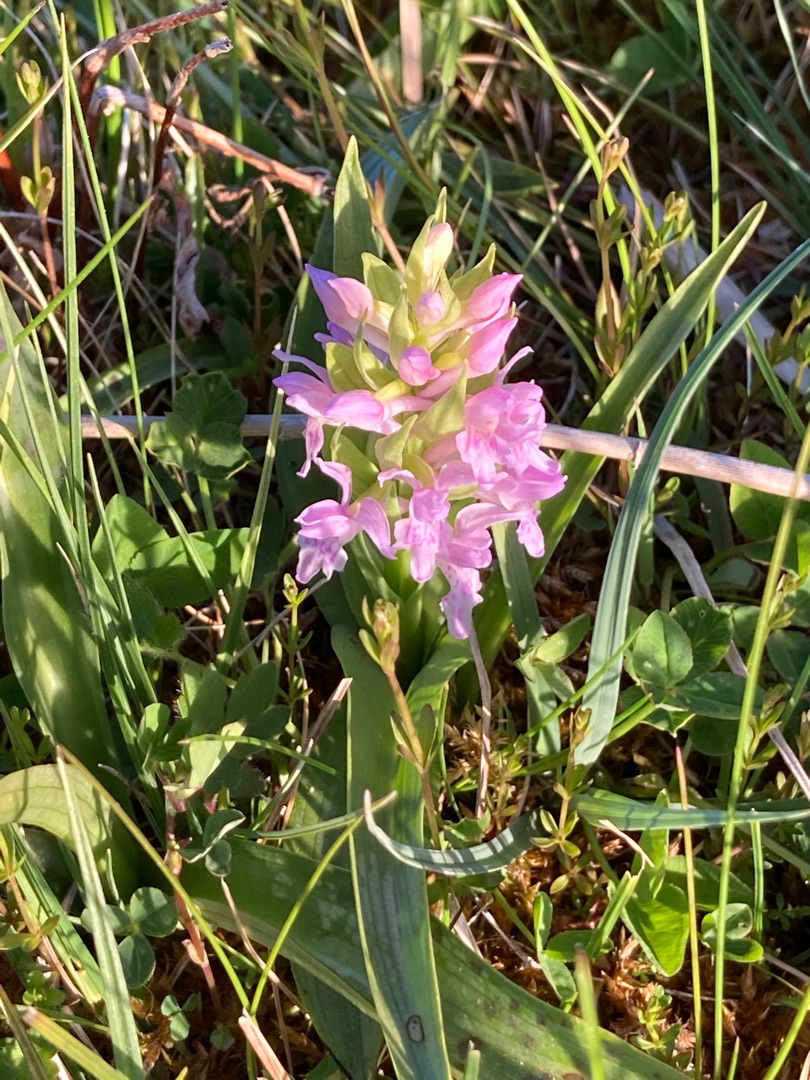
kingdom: Plantae
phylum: Tracheophyta
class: Liliopsida
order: Asparagales
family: Orchidaceae
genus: Dactylorhiza
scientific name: Dactylorhiza incarnata
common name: Kødfarvet gøgeurt
